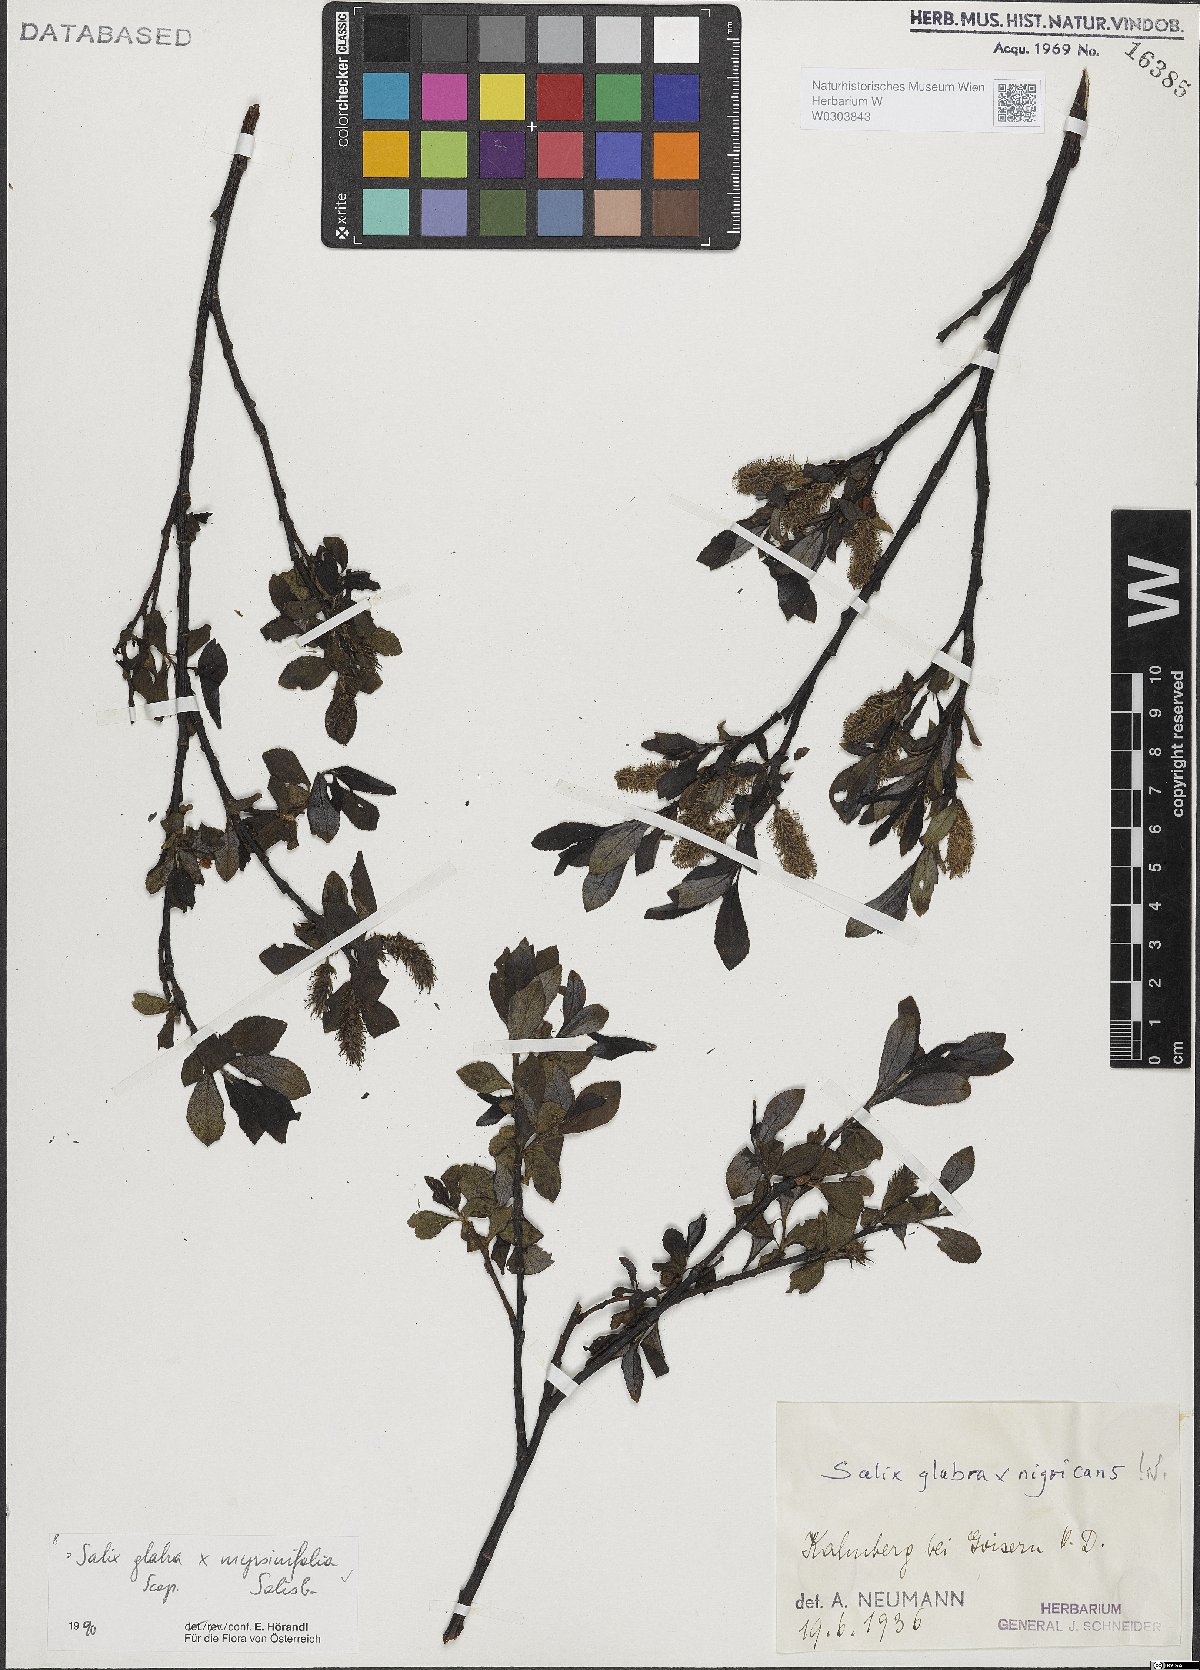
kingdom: Plantae
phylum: Tracheophyta
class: Magnoliopsida
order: Malpighiales
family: Salicaceae
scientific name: Salicaceae
